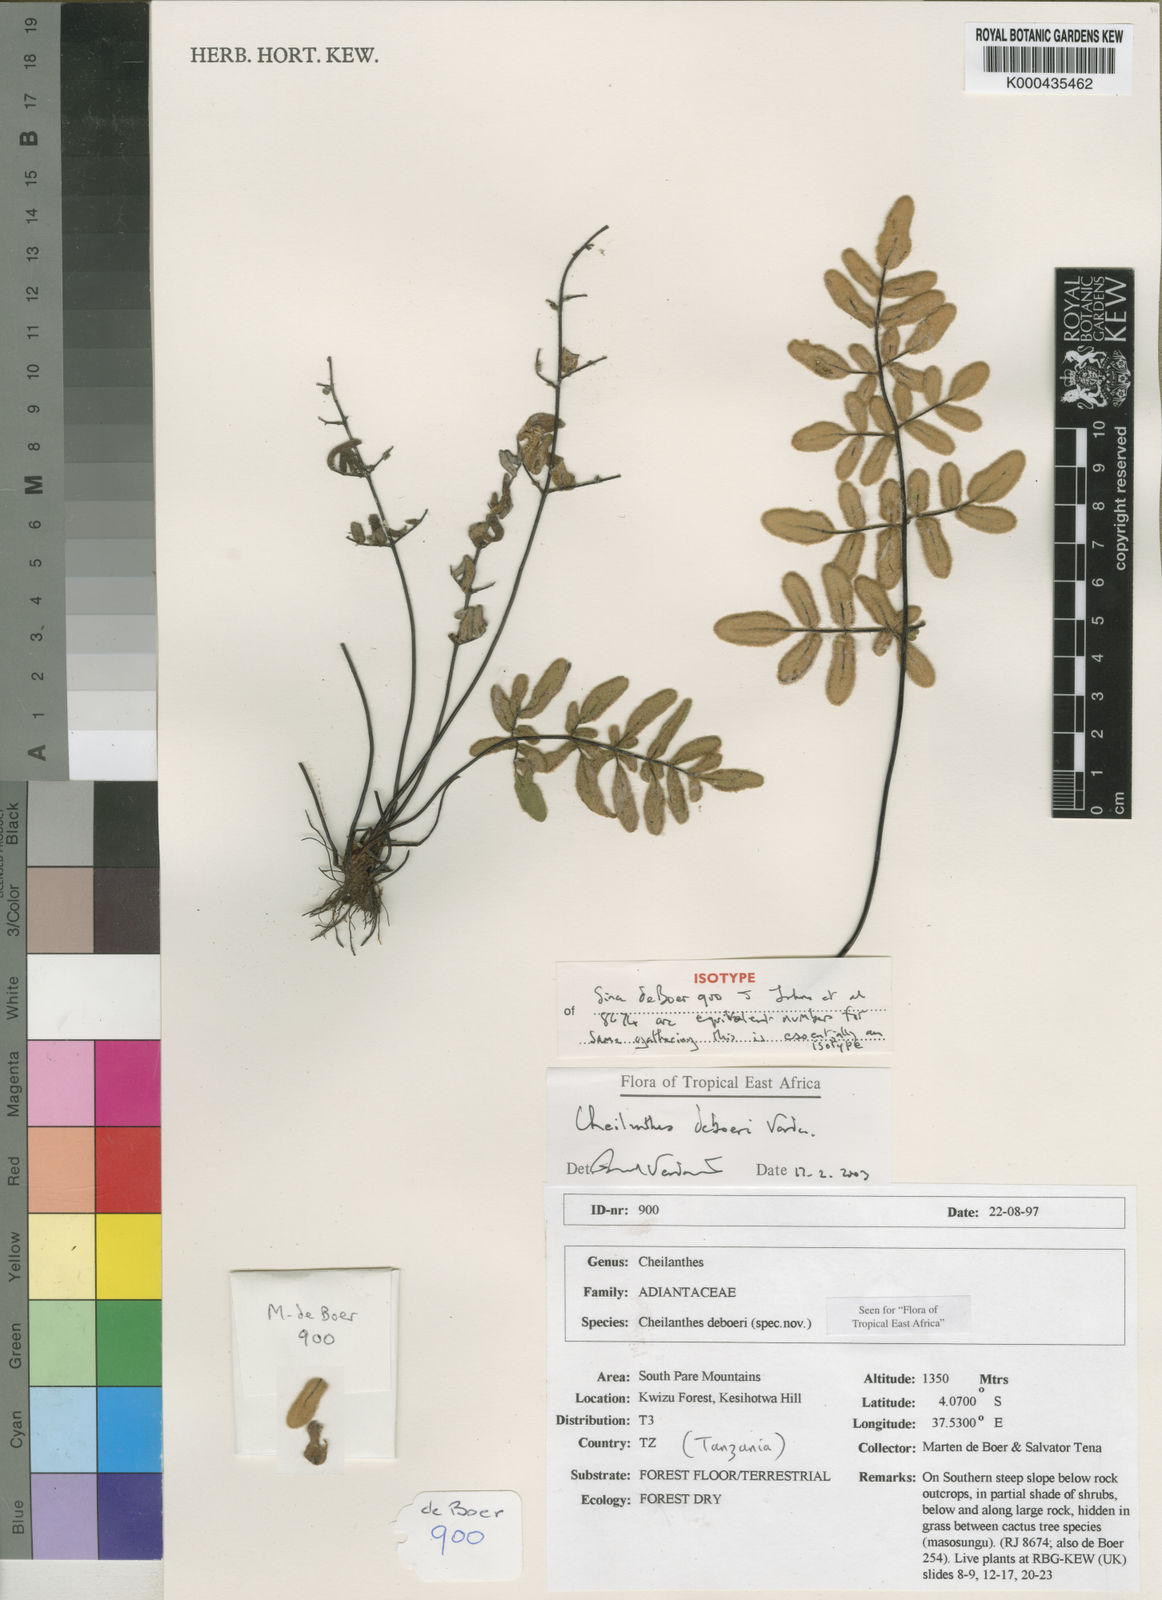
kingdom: Plantae
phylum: Tracheophyta
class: Polypodiopsida
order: Polypodiales
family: Pteridaceae
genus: Cheilanthes
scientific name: Cheilanthes deboeri
